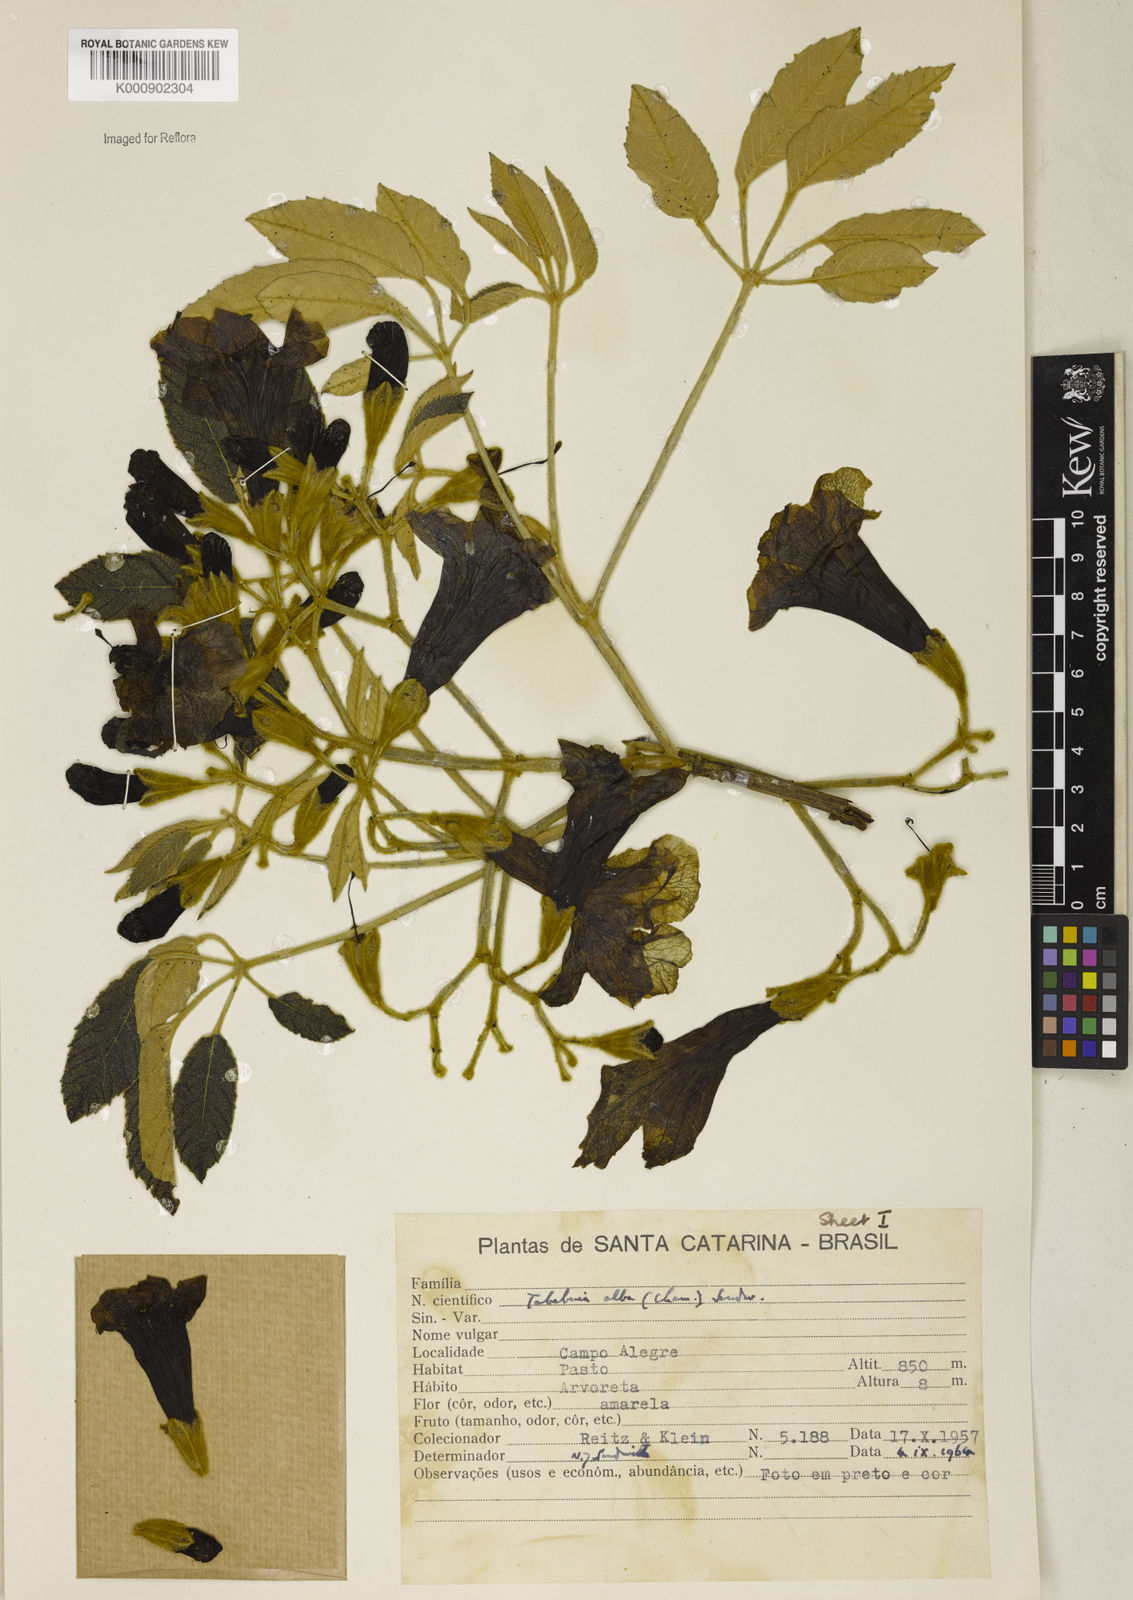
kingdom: Plantae
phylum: Tracheophyta
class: Magnoliopsida
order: Lamiales
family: Bignoniaceae
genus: Handroanthus
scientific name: Handroanthus albus
